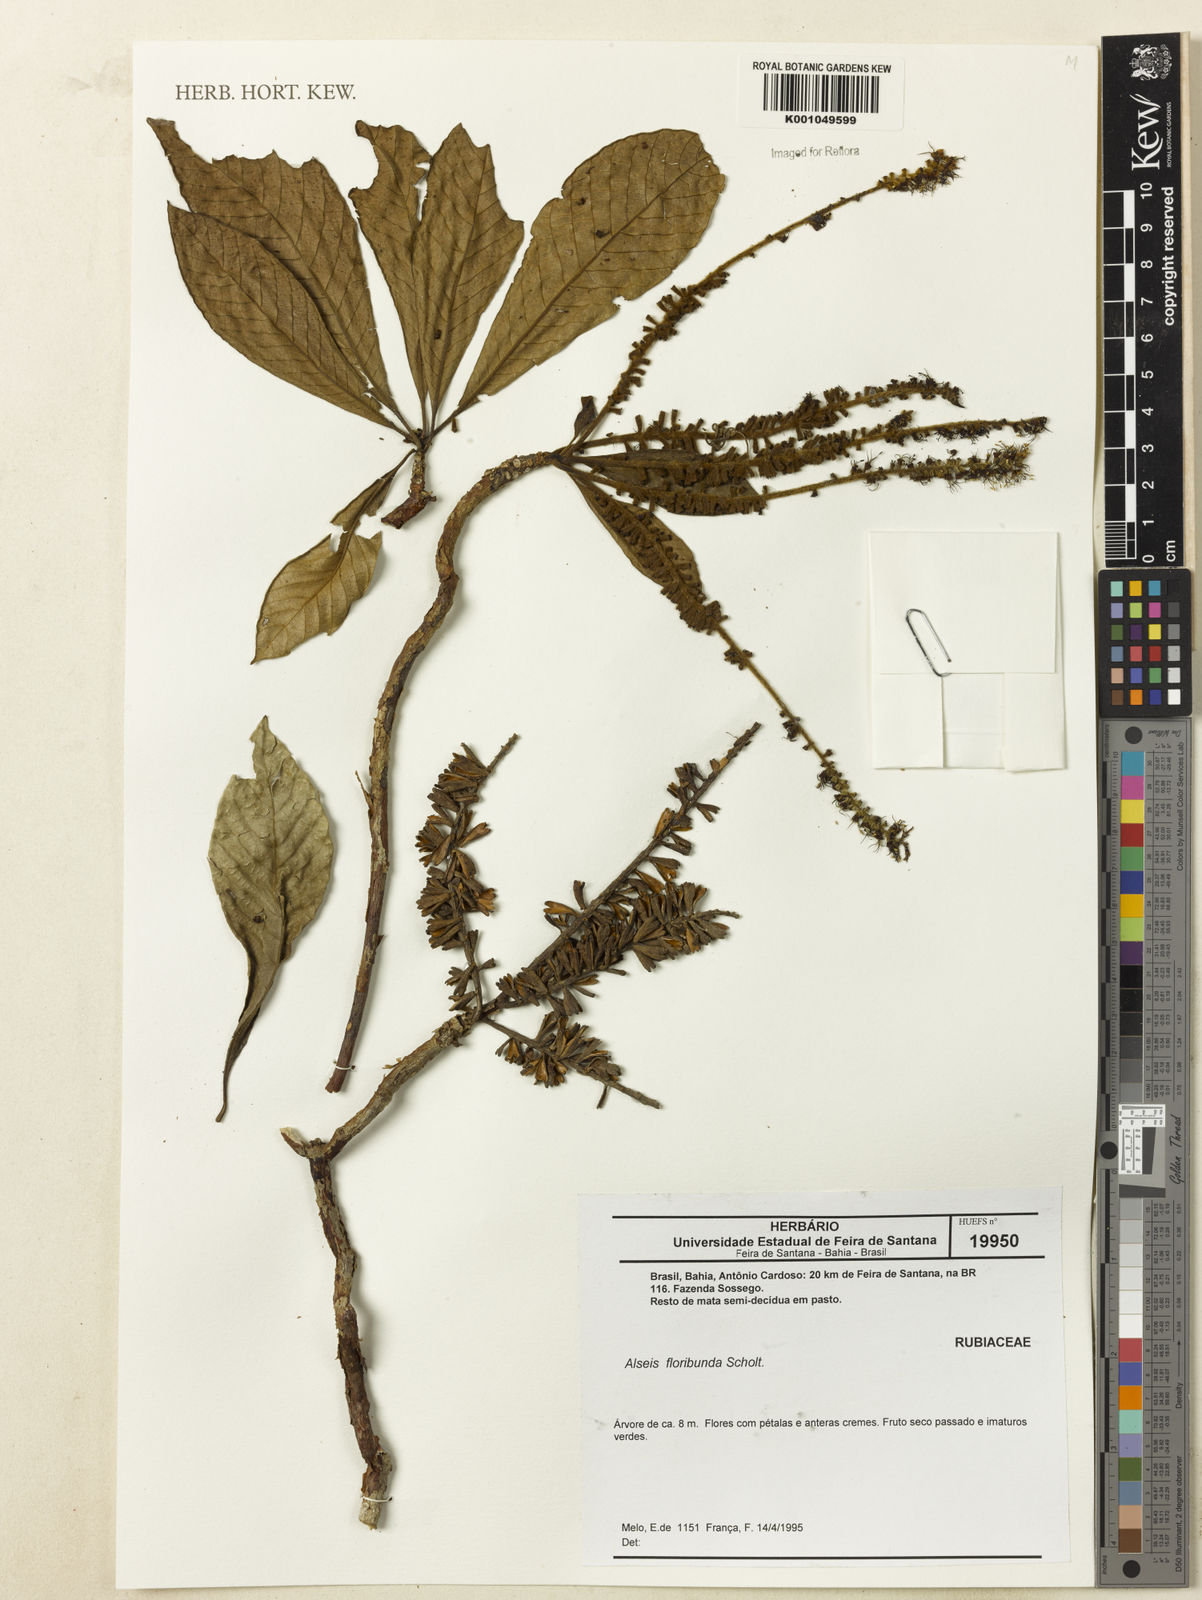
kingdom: Plantae
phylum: Tracheophyta
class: Magnoliopsida
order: Gentianales
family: Rubiaceae
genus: Alseis
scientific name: Alseis floribunda
